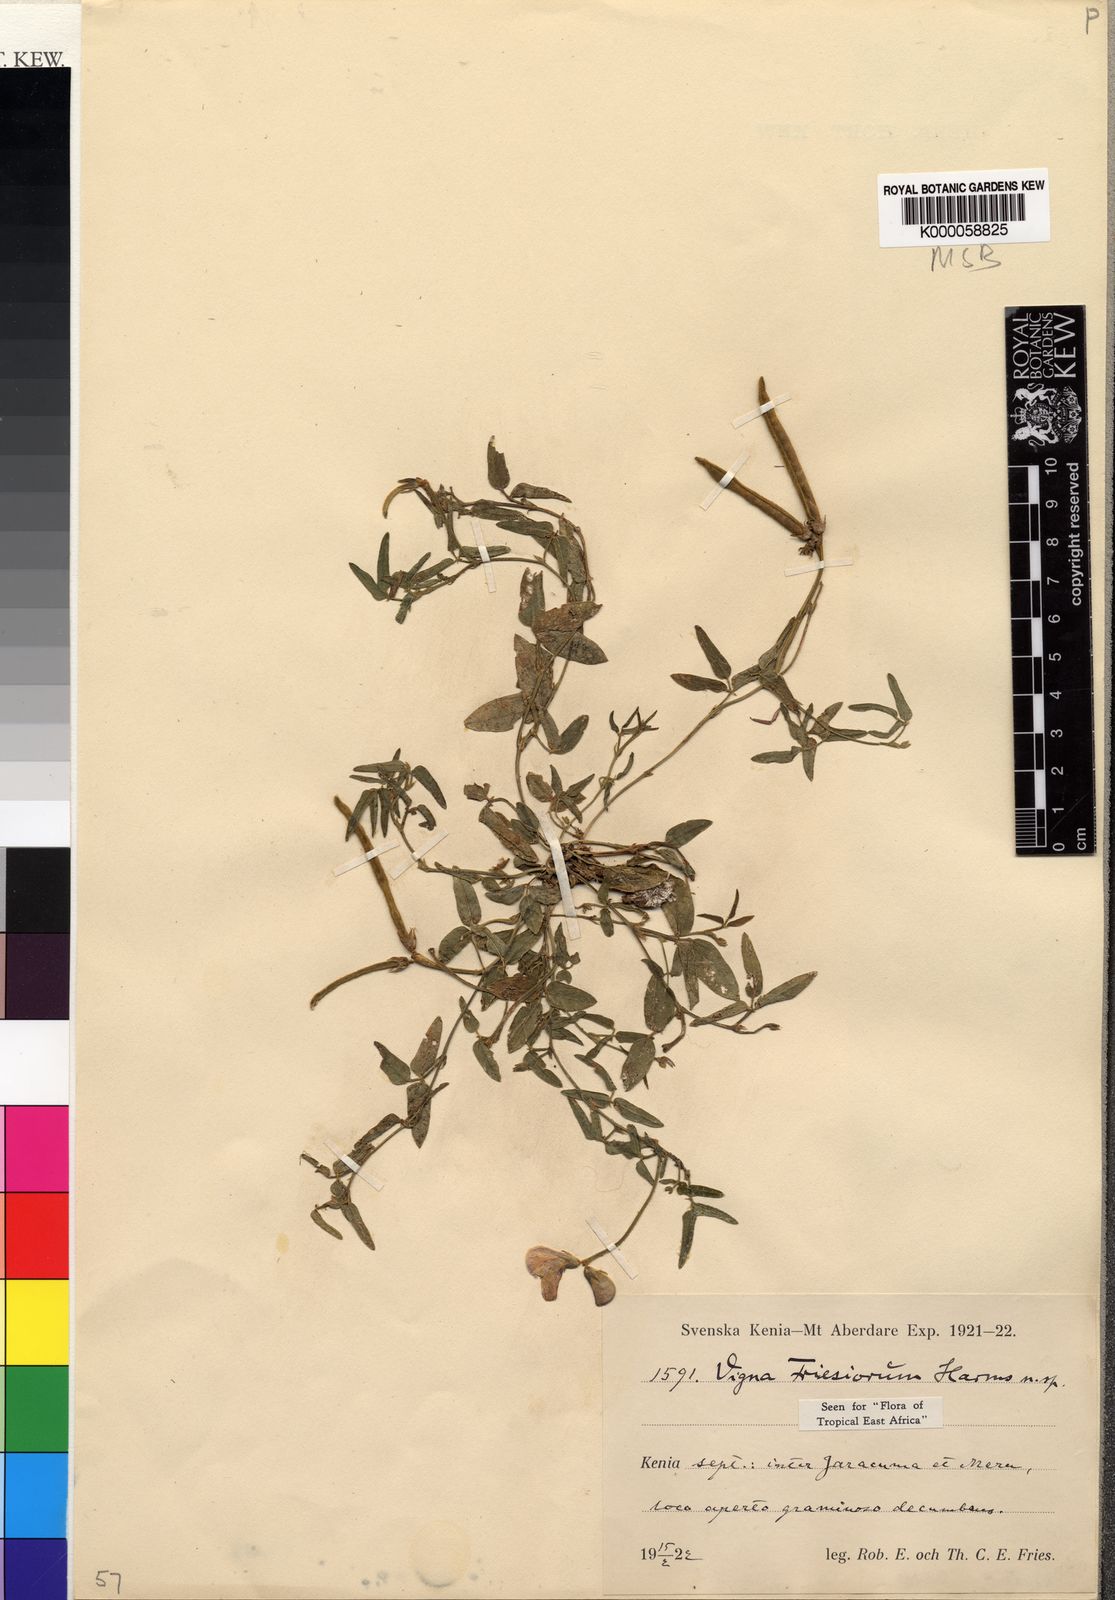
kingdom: Plantae
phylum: Tracheophyta
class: Magnoliopsida
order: Fabales
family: Fabaceae
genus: Vigna
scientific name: Vigna friesiorum
